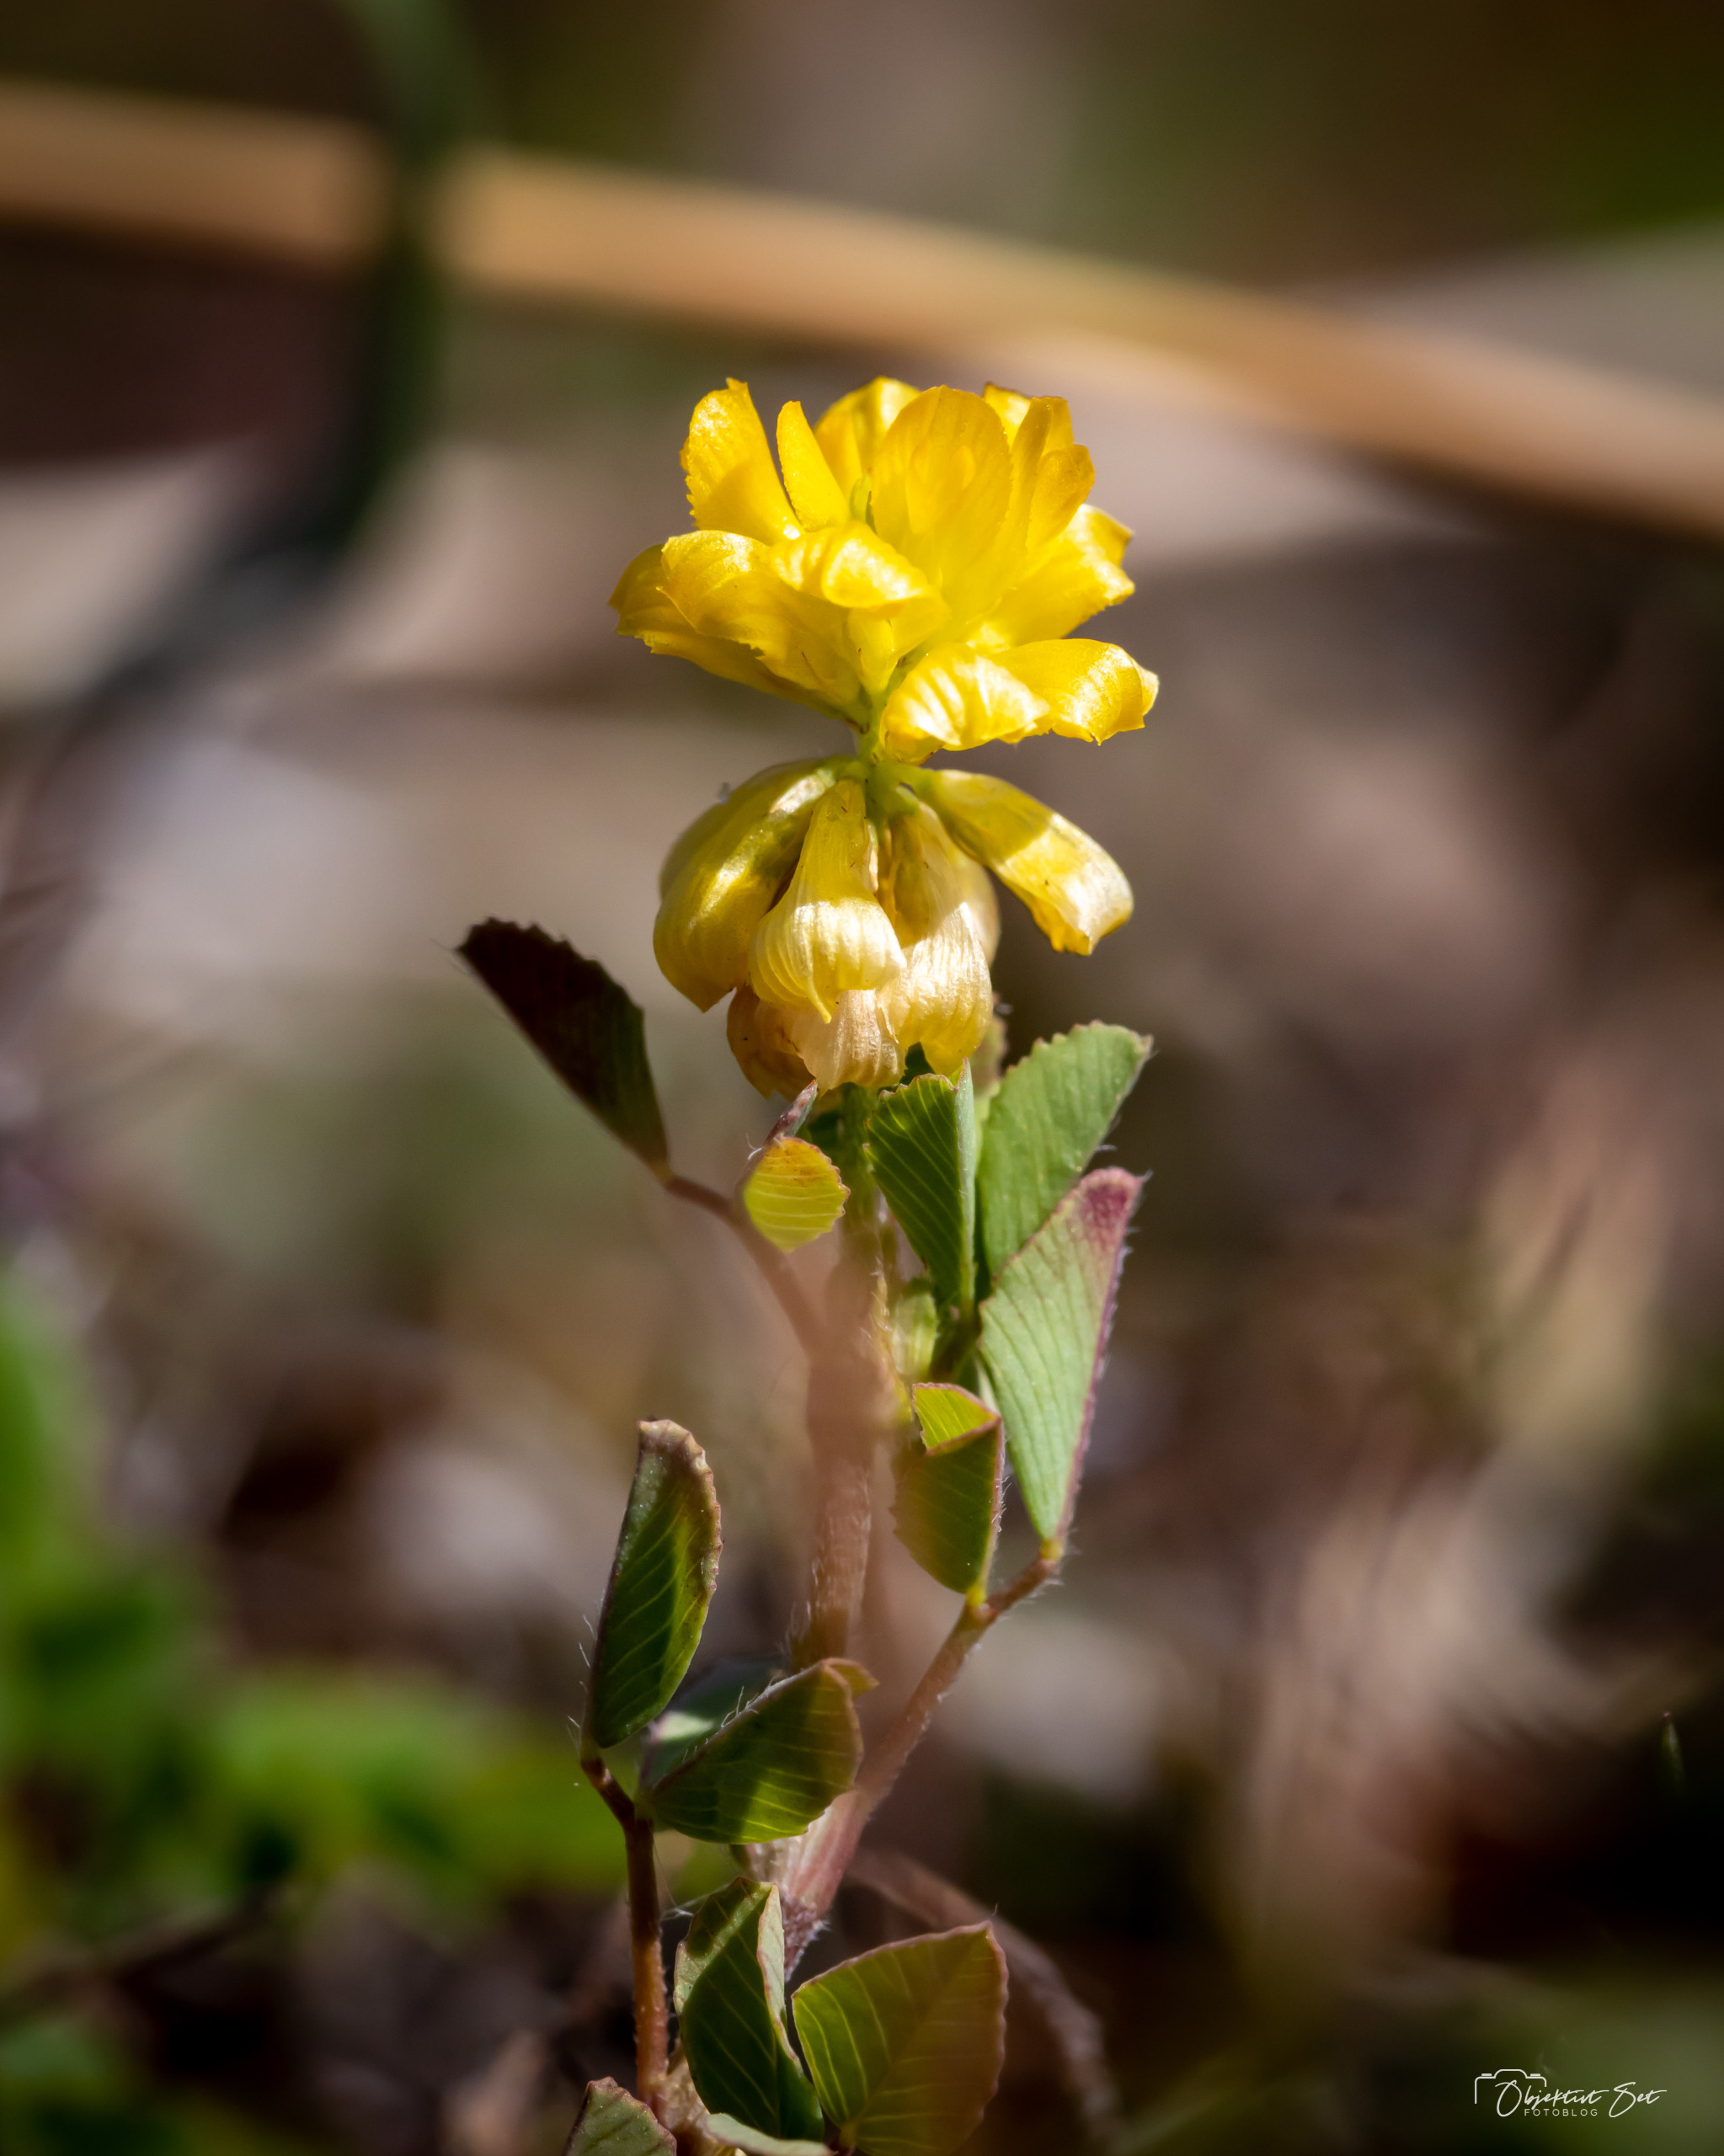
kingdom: Plantae
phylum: Tracheophyta
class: Magnoliopsida
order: Fabales
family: Fabaceae
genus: Trifolium
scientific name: Trifolium campestre
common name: Gul kløver
